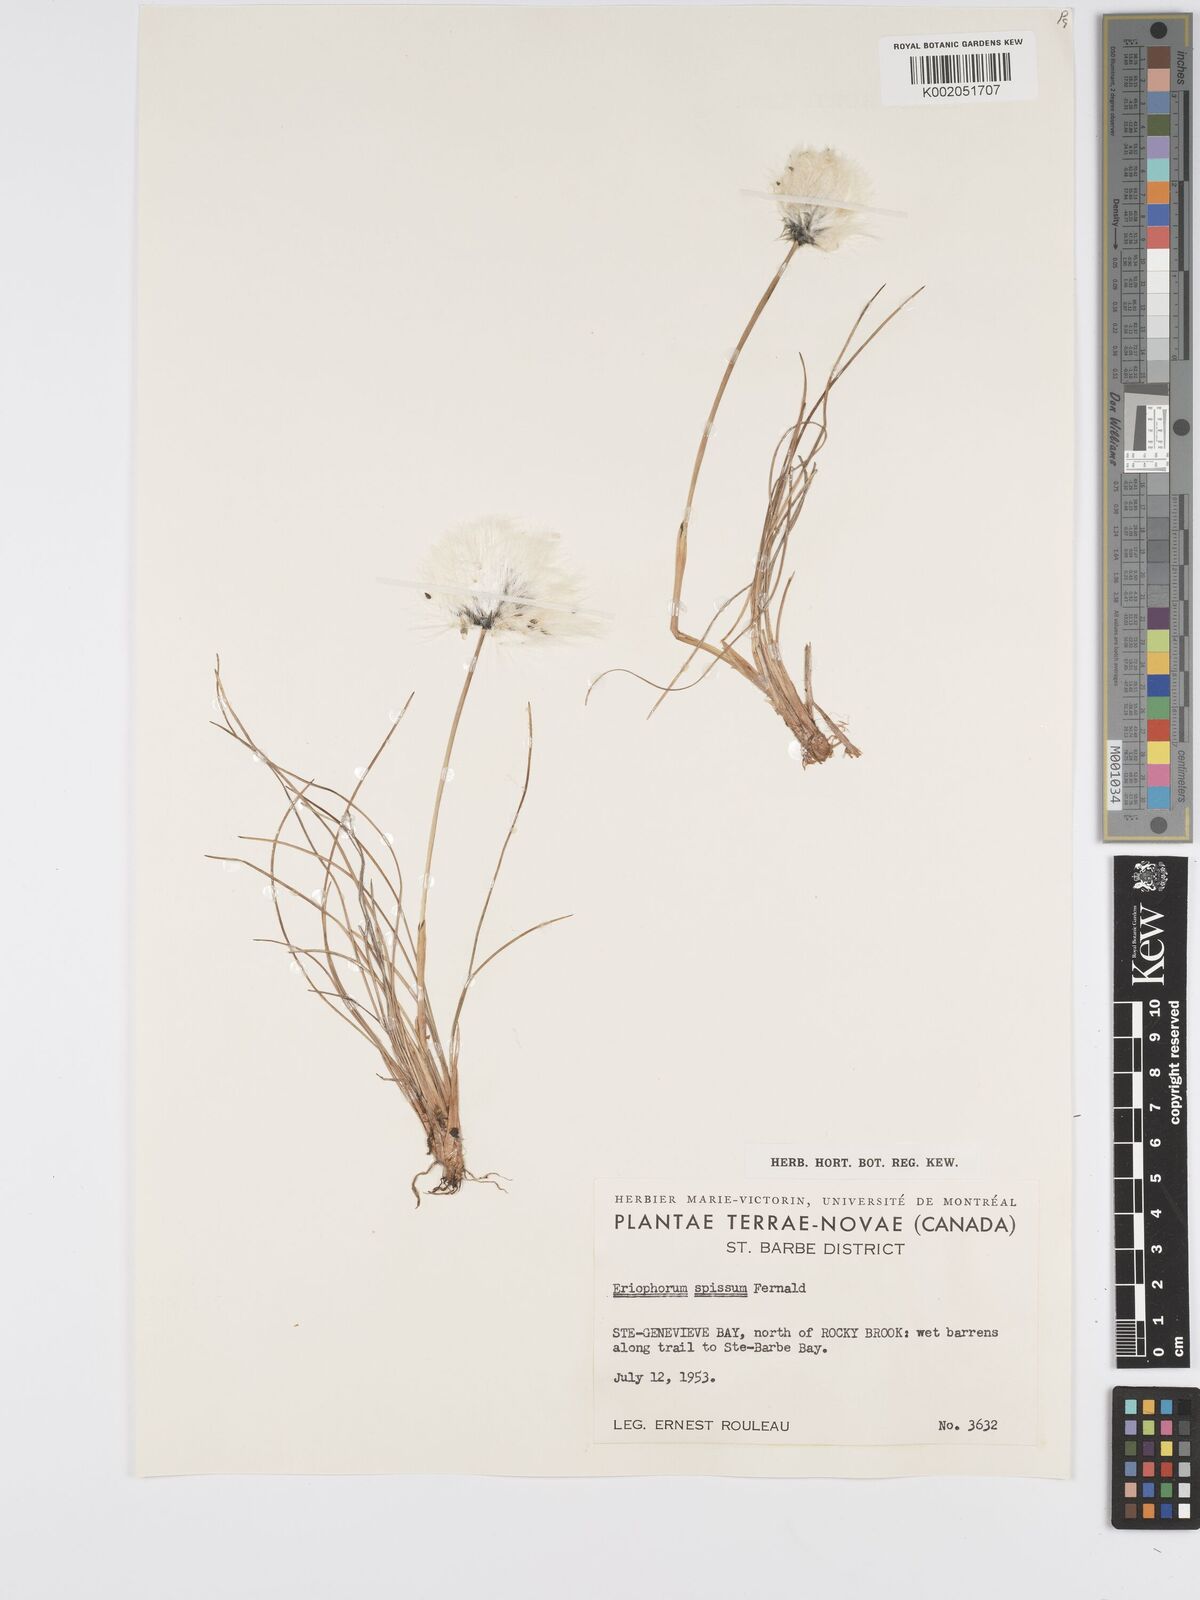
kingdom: Plantae
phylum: Tracheophyta
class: Liliopsida
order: Poales
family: Cyperaceae
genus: Eriophorum
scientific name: Eriophorum vaginatum
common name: Hare's-tail cottongrass
